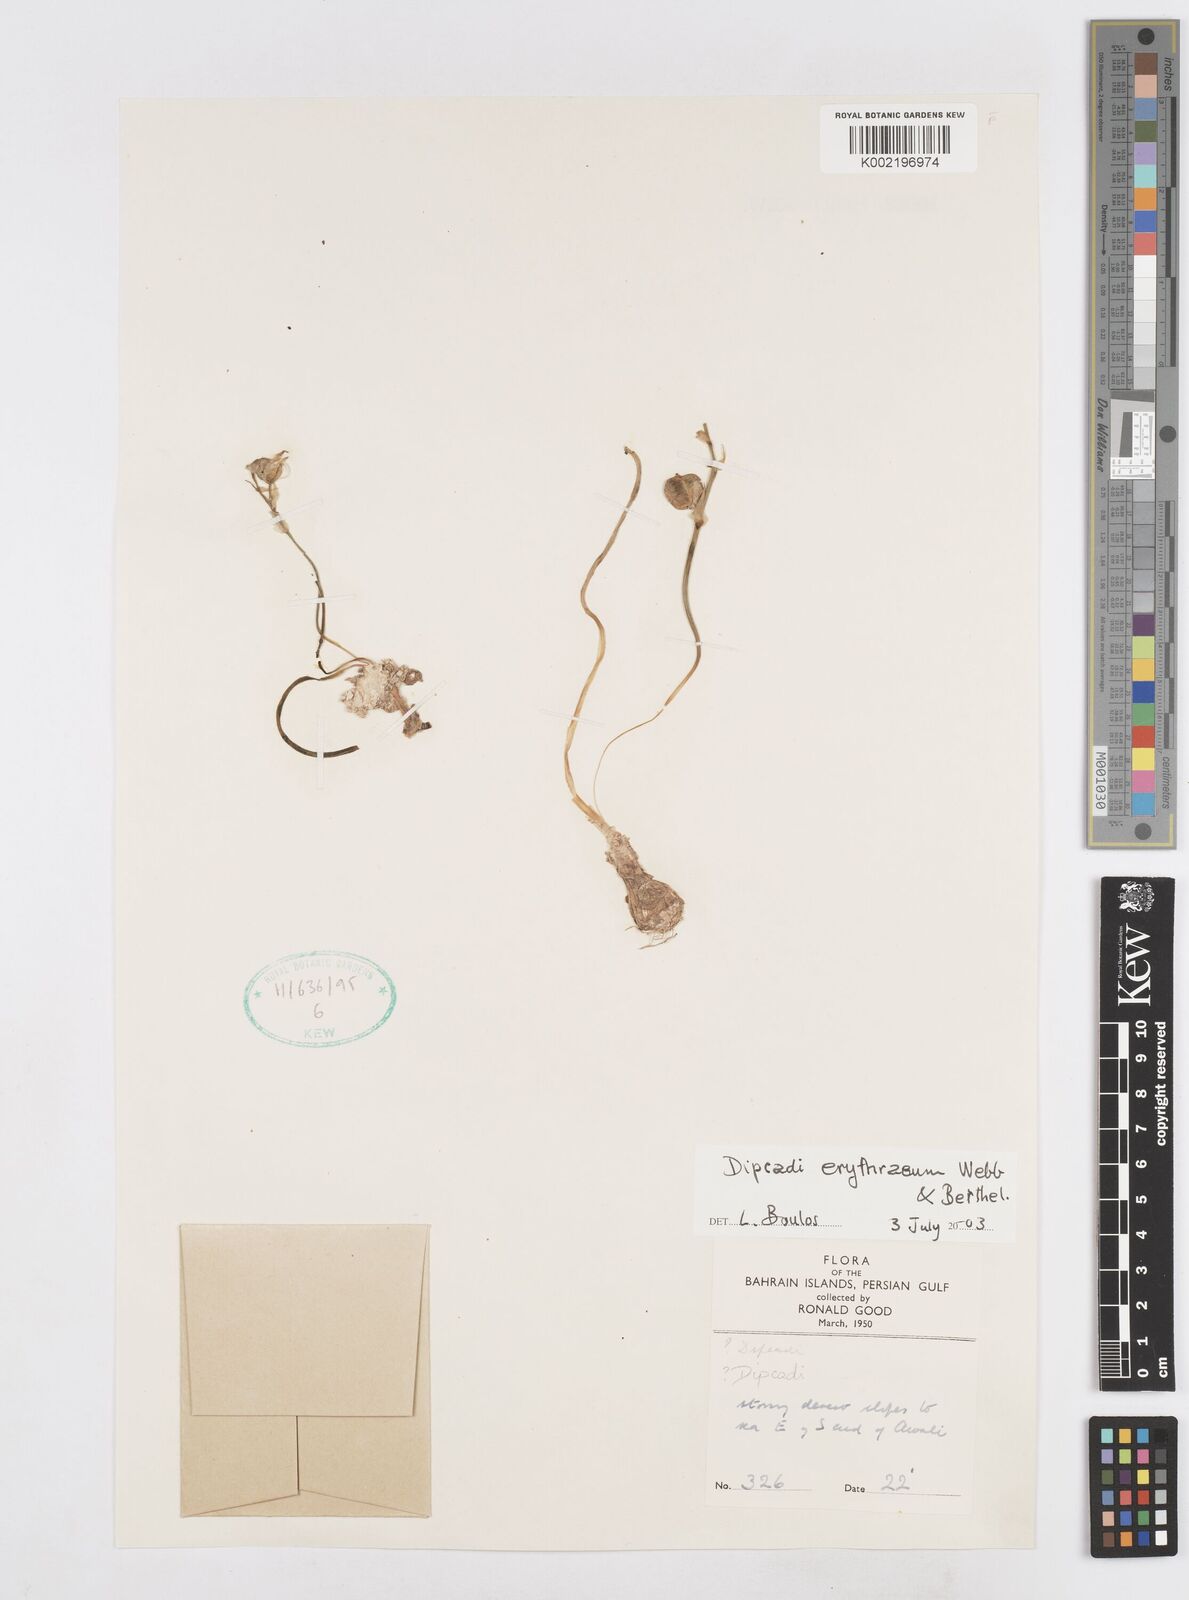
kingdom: Plantae
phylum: Tracheophyta
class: Liliopsida
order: Asparagales
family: Asparagaceae
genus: Dipcadi
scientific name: Dipcadi erythraeum
